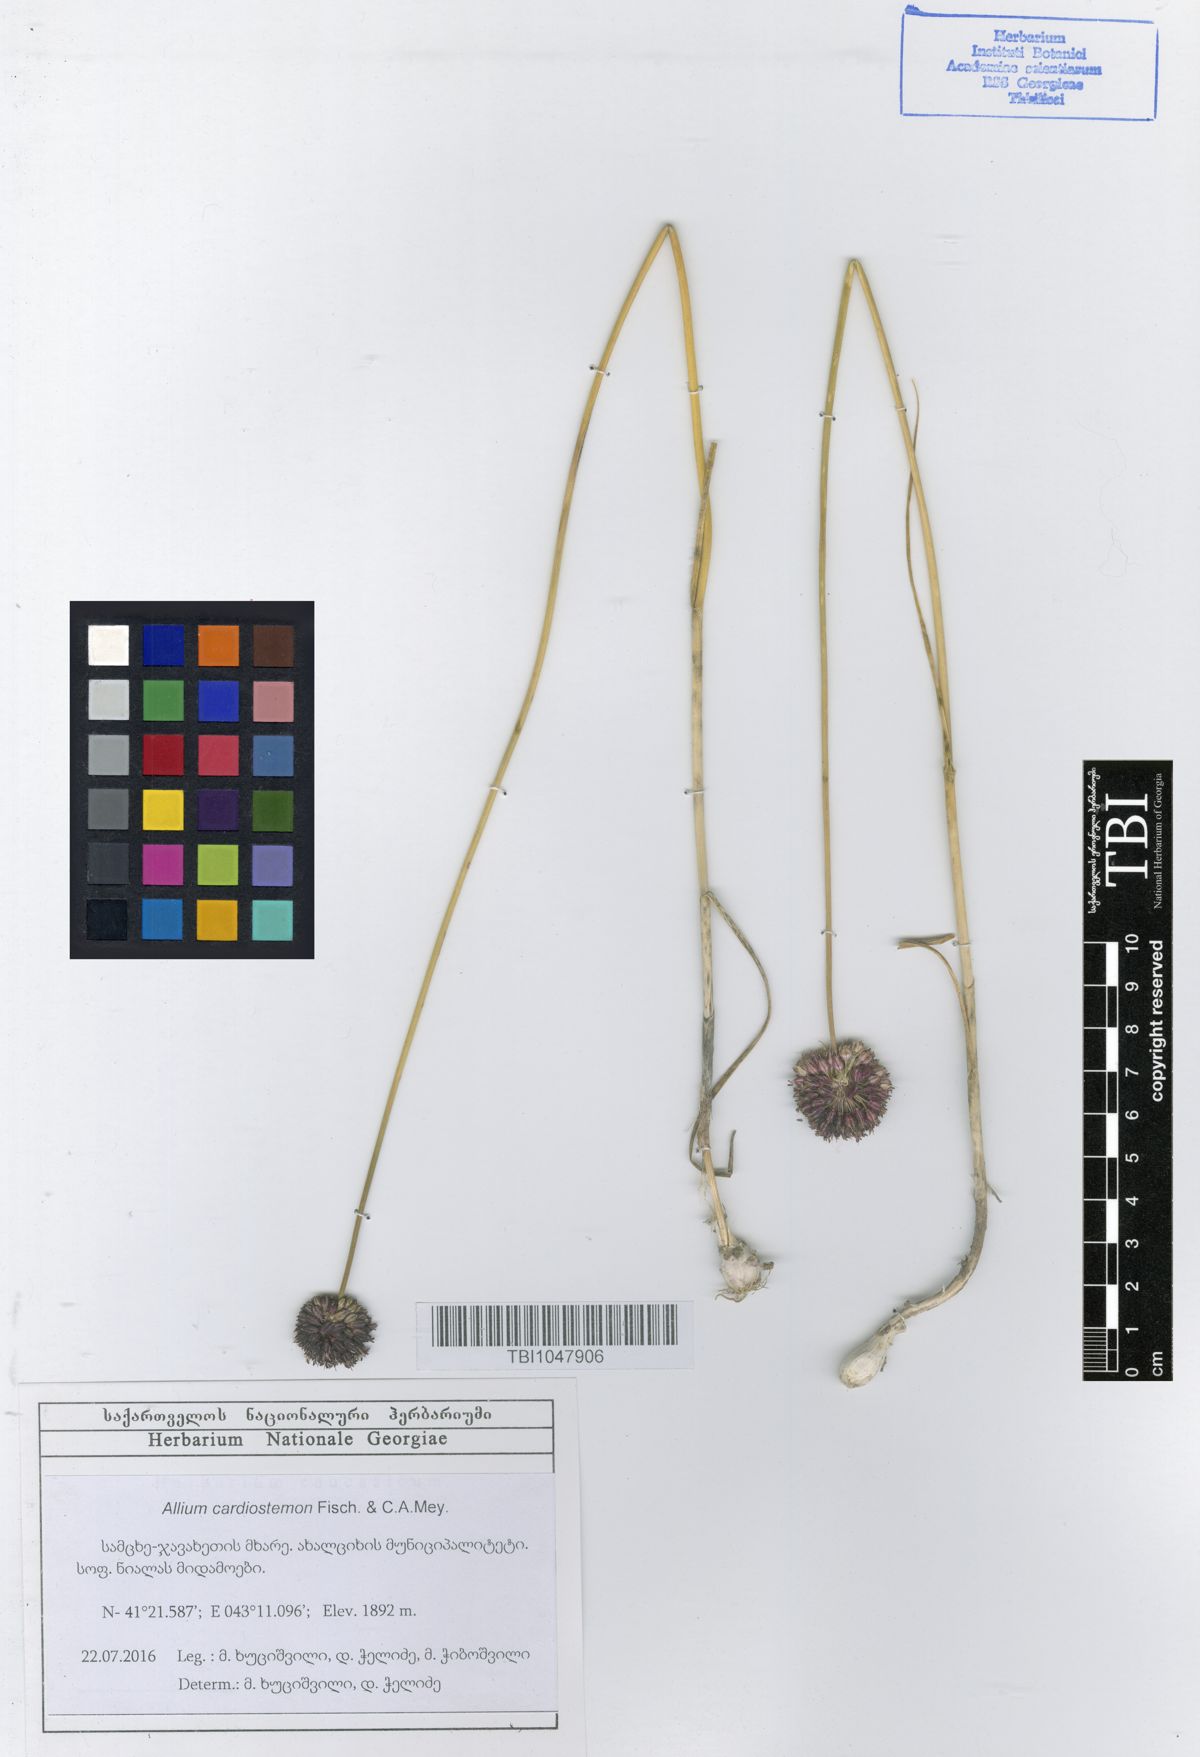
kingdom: Plantae
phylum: Tracheophyta
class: Liliopsida
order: Asparagales
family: Amaryllidaceae
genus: Allium
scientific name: Allium cardiostemon
